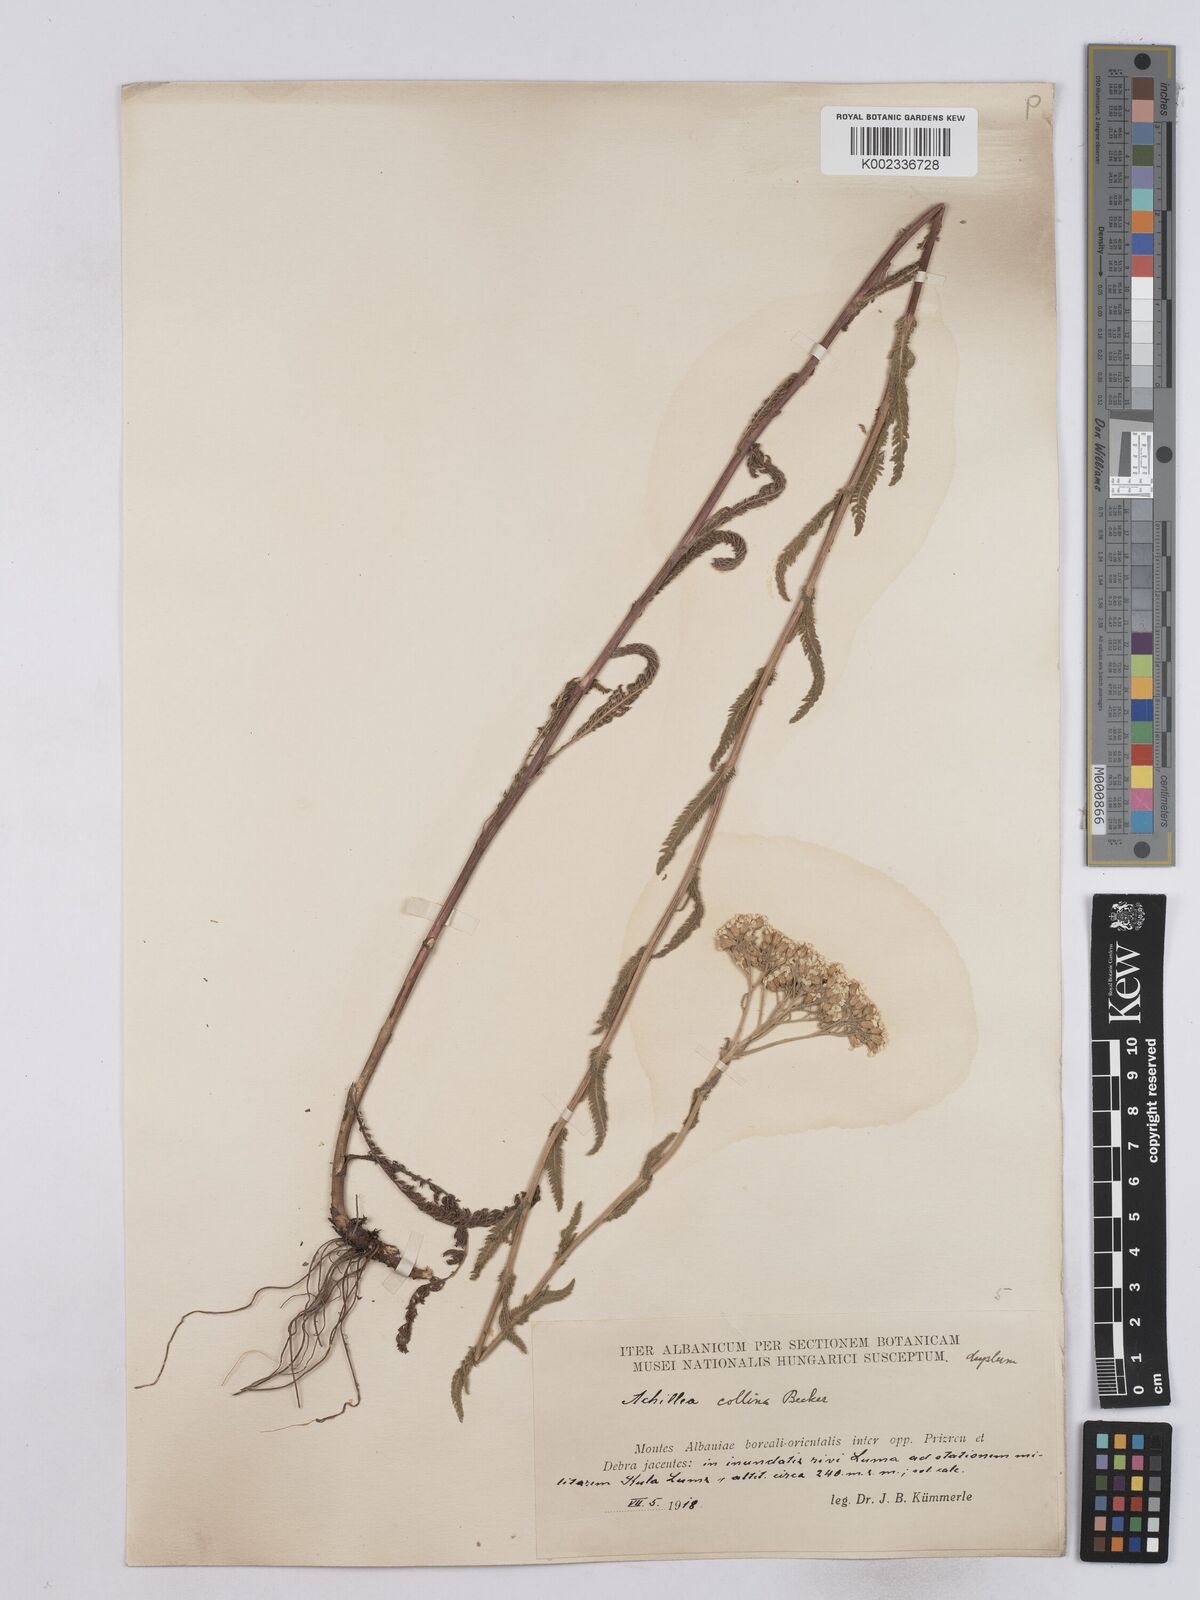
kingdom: Plantae
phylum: Tracheophyta
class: Magnoliopsida
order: Asterales
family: Asteraceae
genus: Achillea
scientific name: Achillea collina
